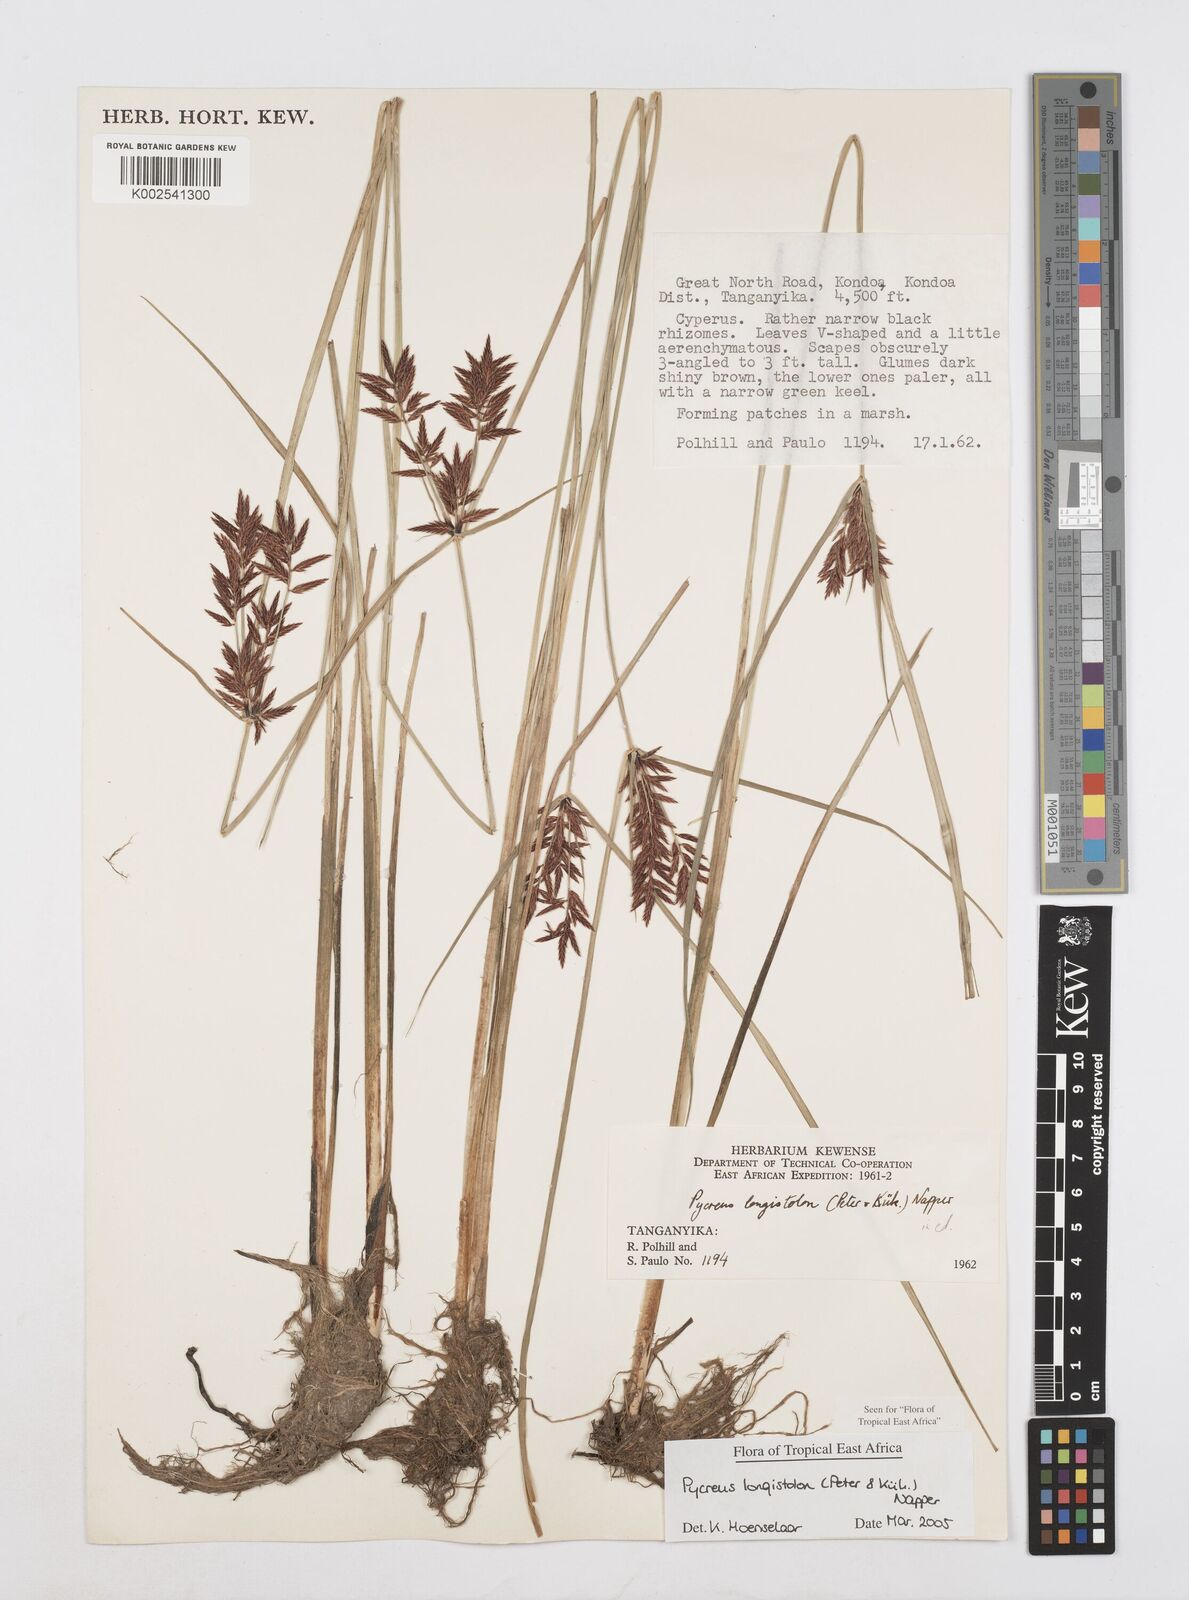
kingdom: Plantae
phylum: Tracheophyta
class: Liliopsida
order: Poales
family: Cyperaceae
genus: Cyperus
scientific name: Cyperus chrysanthus
